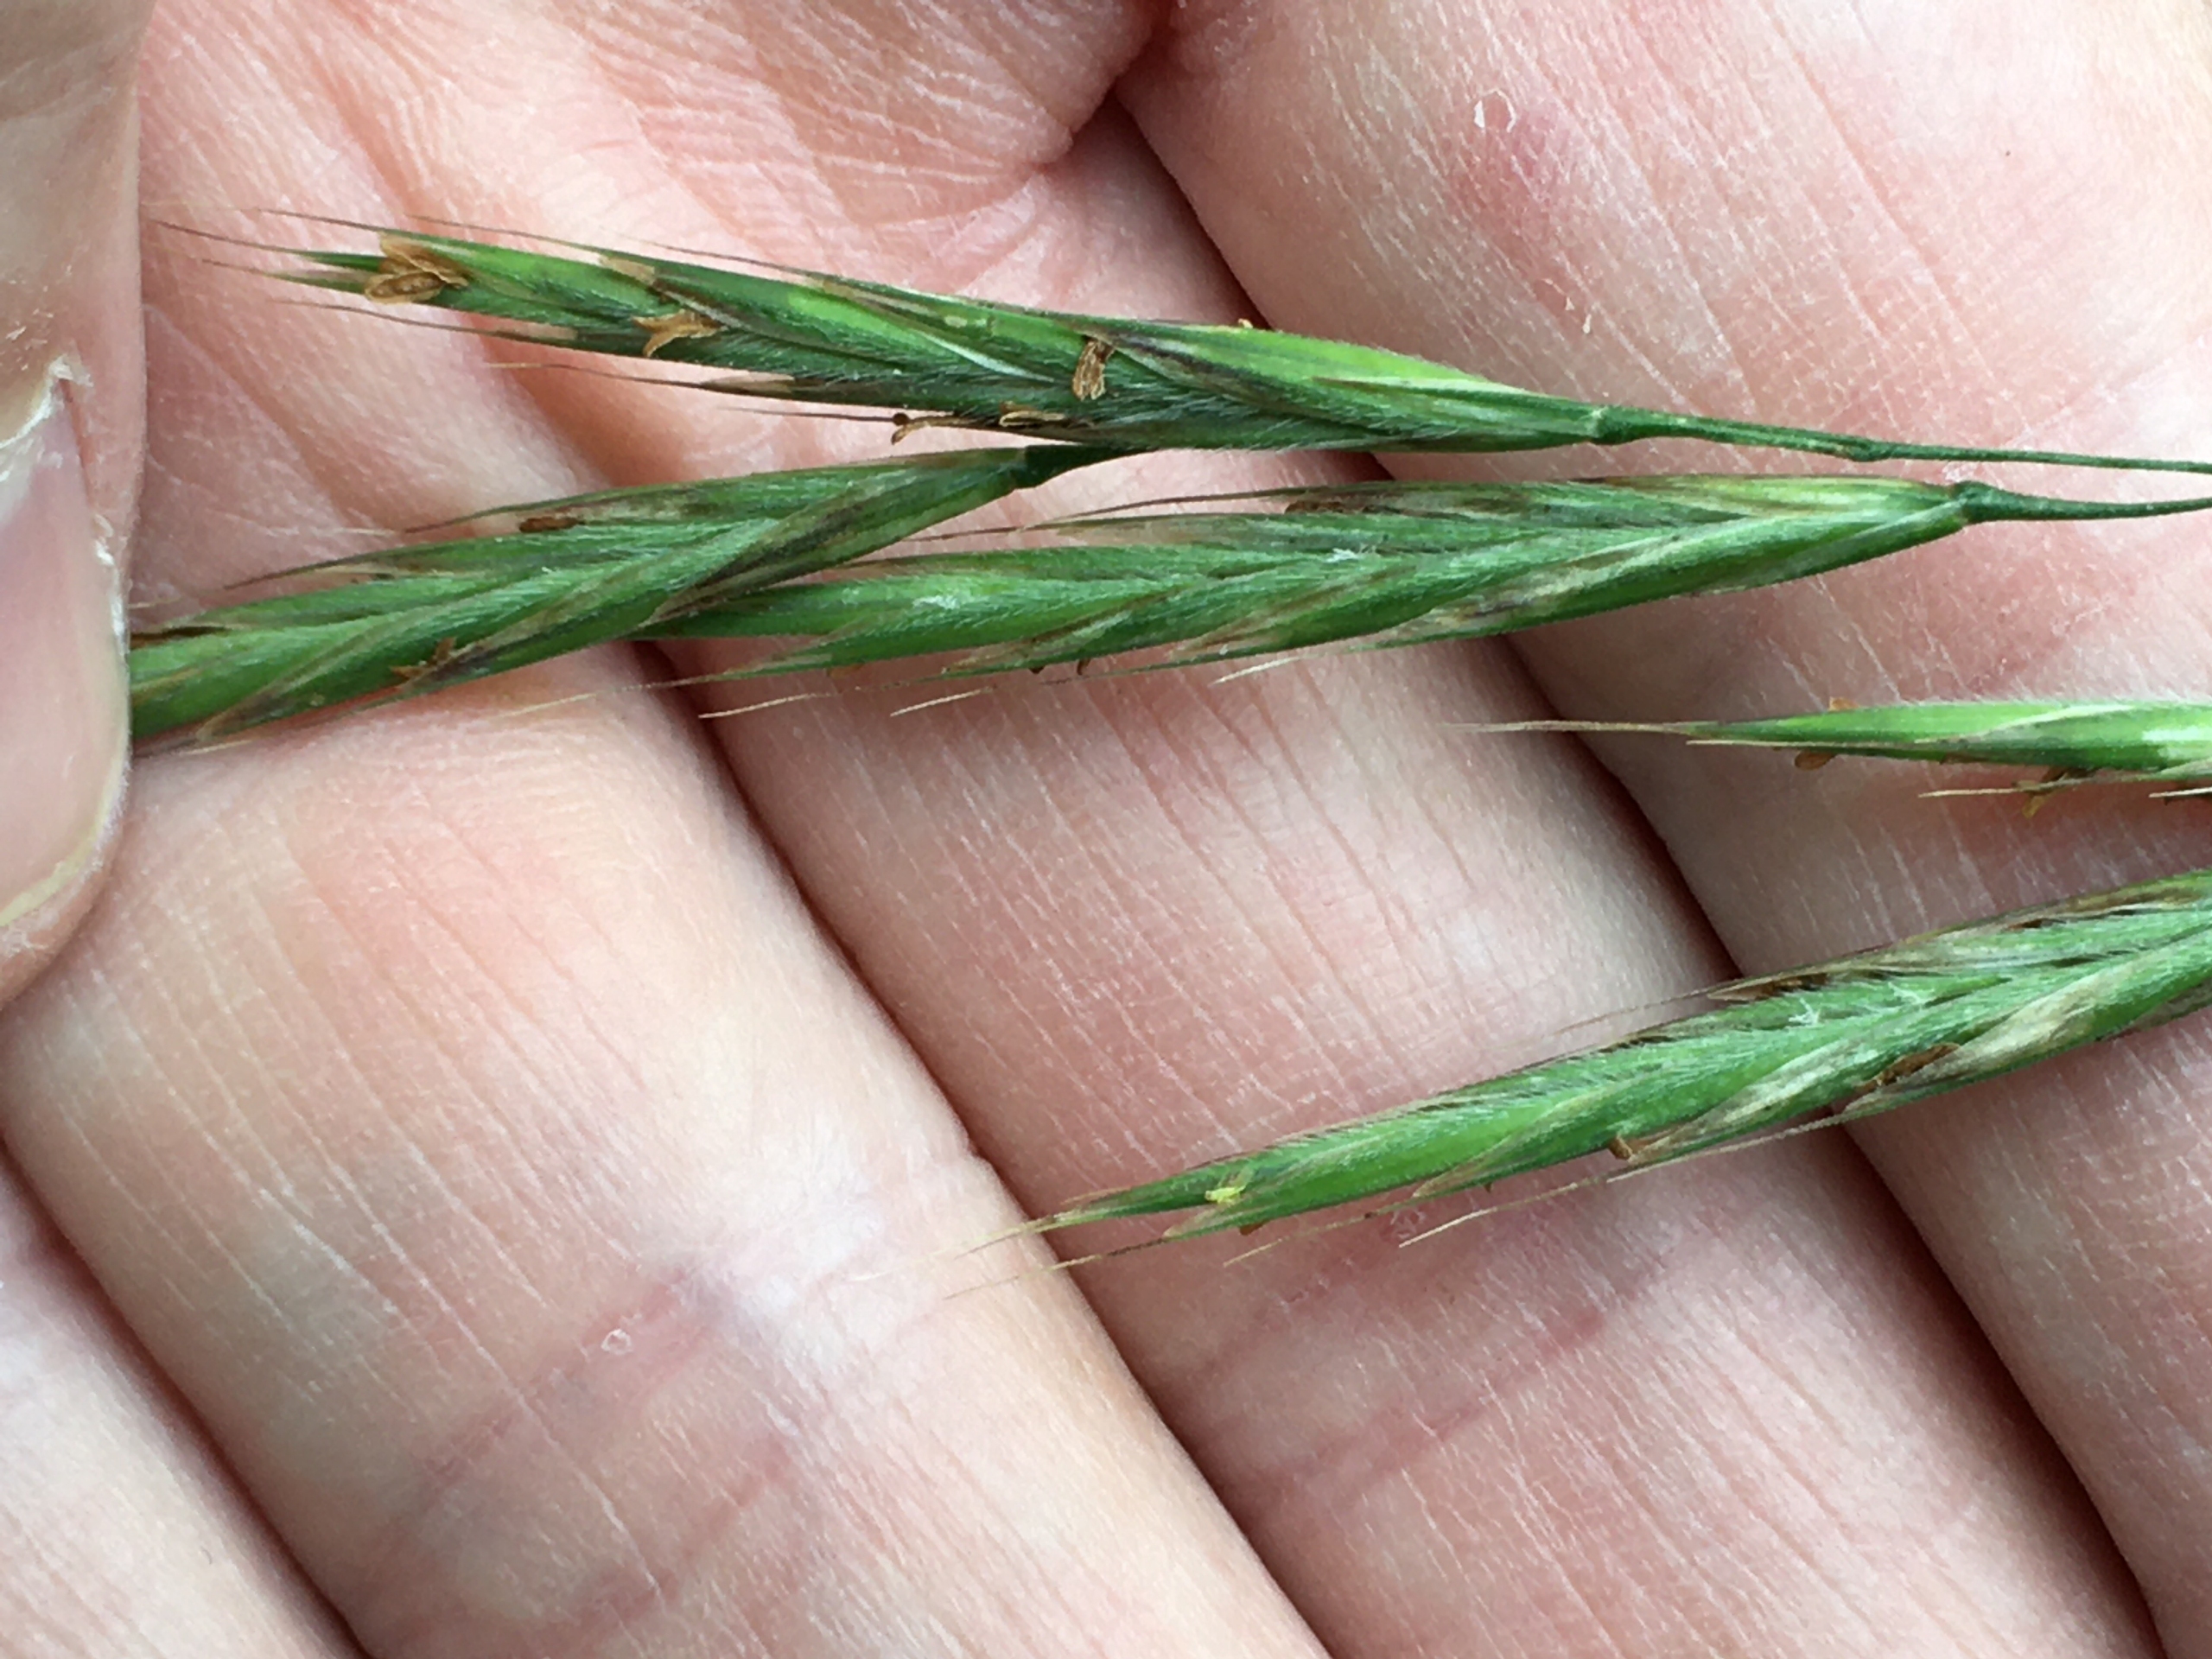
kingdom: Plantae
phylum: Tracheophyta
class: Liliopsida
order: Poales
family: Poaceae
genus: Bromus
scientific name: Bromus ramosus
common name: Sildig skov-hejre
